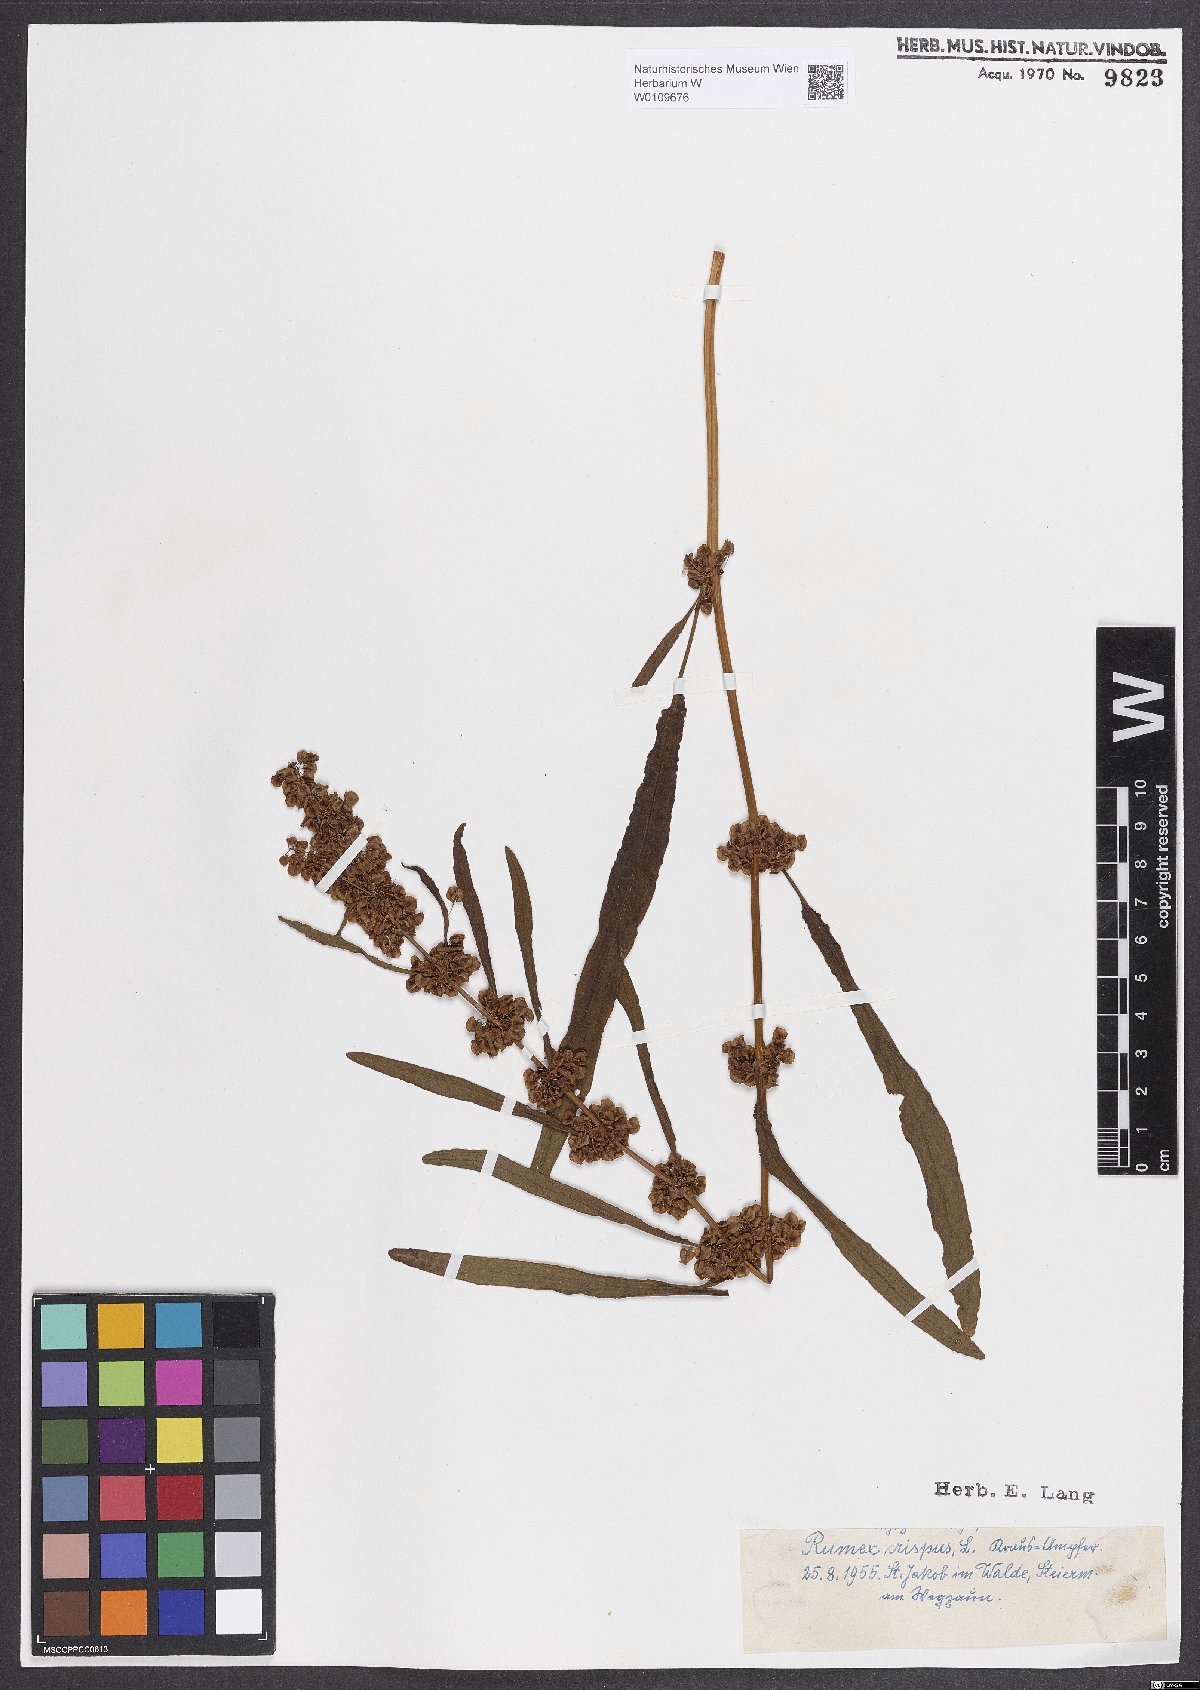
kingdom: Plantae
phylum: Tracheophyta
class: Magnoliopsida
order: Caryophyllales
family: Polygonaceae
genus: Rumex
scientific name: Rumex crispus
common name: Curled dock
